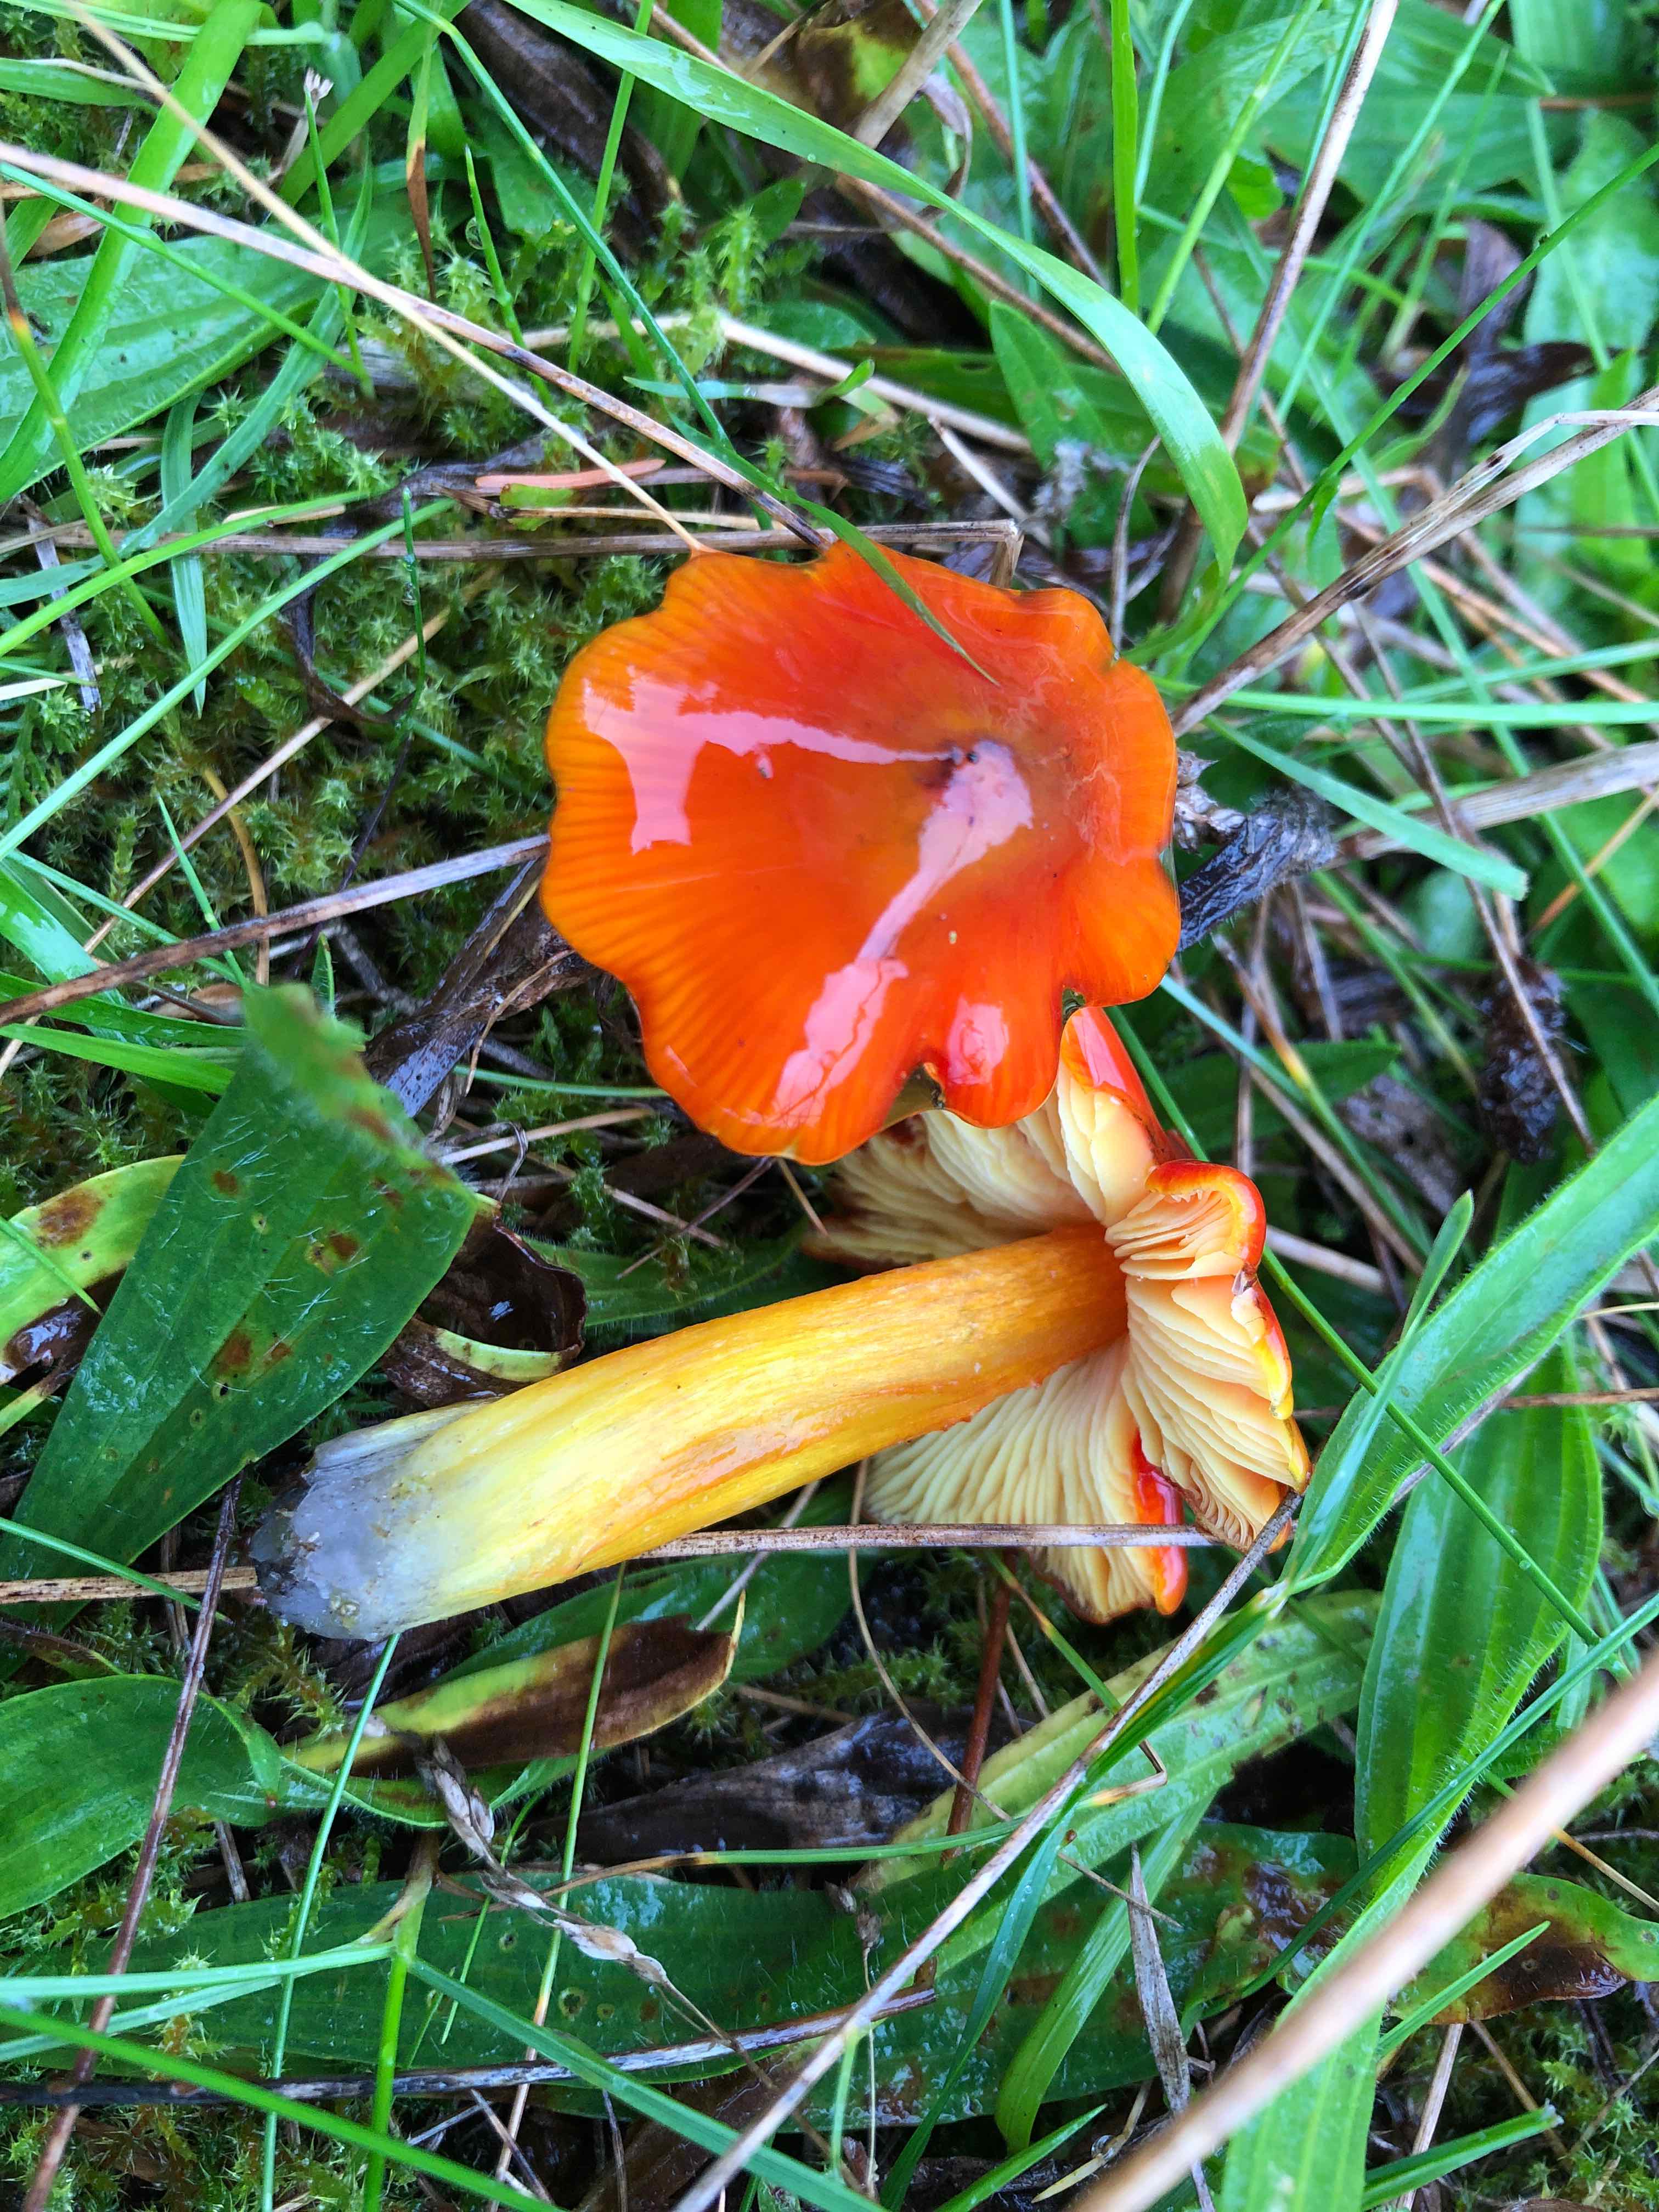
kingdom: Fungi
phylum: Basidiomycota
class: Agaricomycetes
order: Agaricales
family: Hygrophoraceae
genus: Hygrocybe
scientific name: Hygrocybe conica
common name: kegle-vokshat
